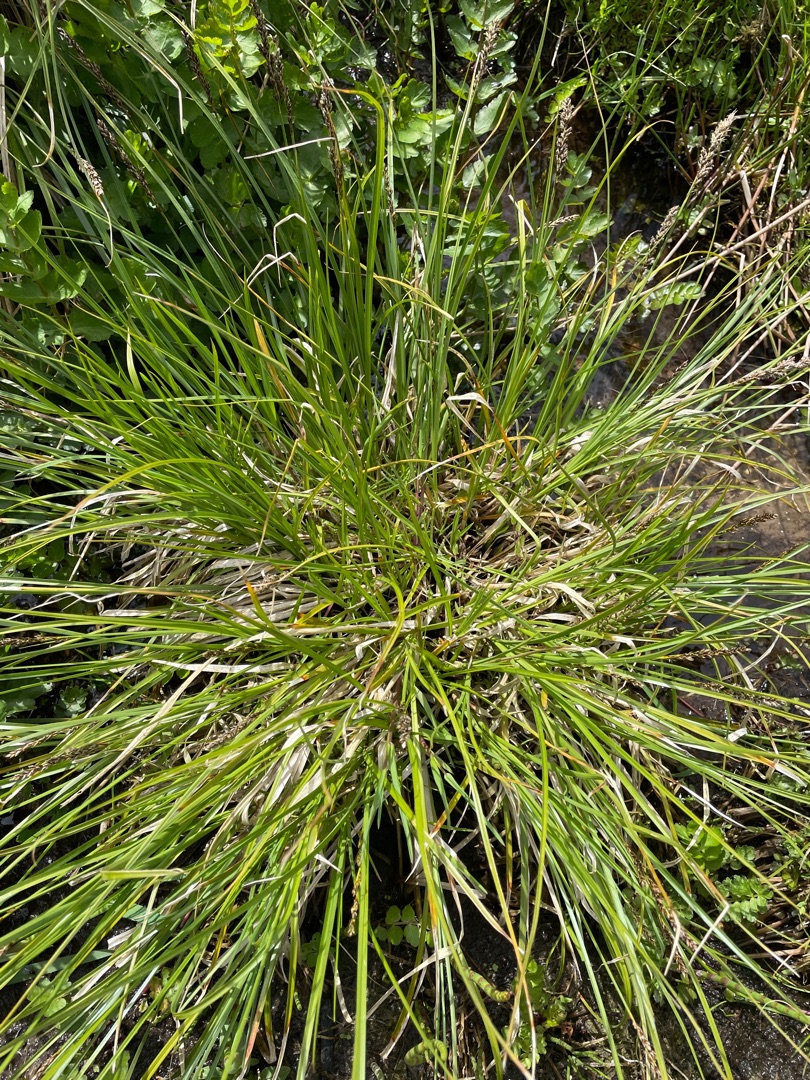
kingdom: Plantae
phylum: Tracheophyta
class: Liliopsida
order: Poales
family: Cyperaceae
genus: Carex
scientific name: Carex paniculata
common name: Top-star
